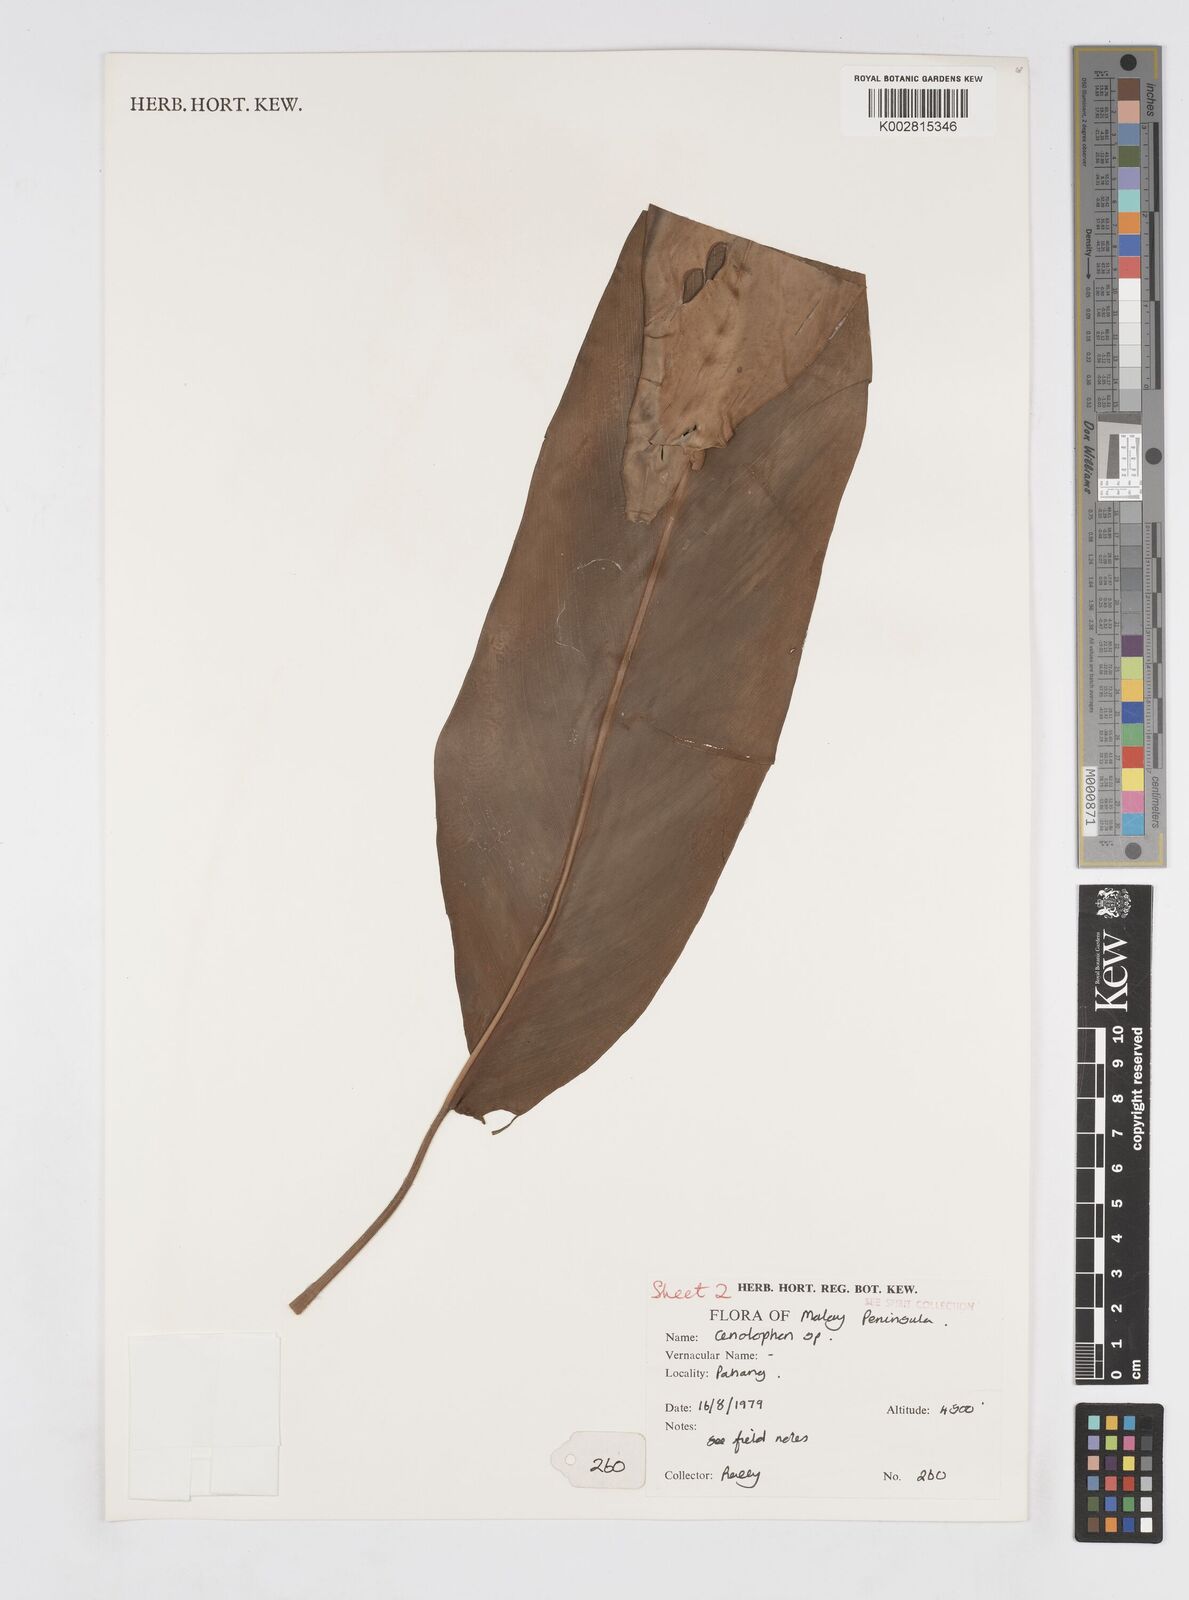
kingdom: Plantae
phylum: Tracheophyta
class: Liliopsida
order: Zingiberales
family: Zingiberaceae
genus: Alpinia
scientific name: Alpinia
